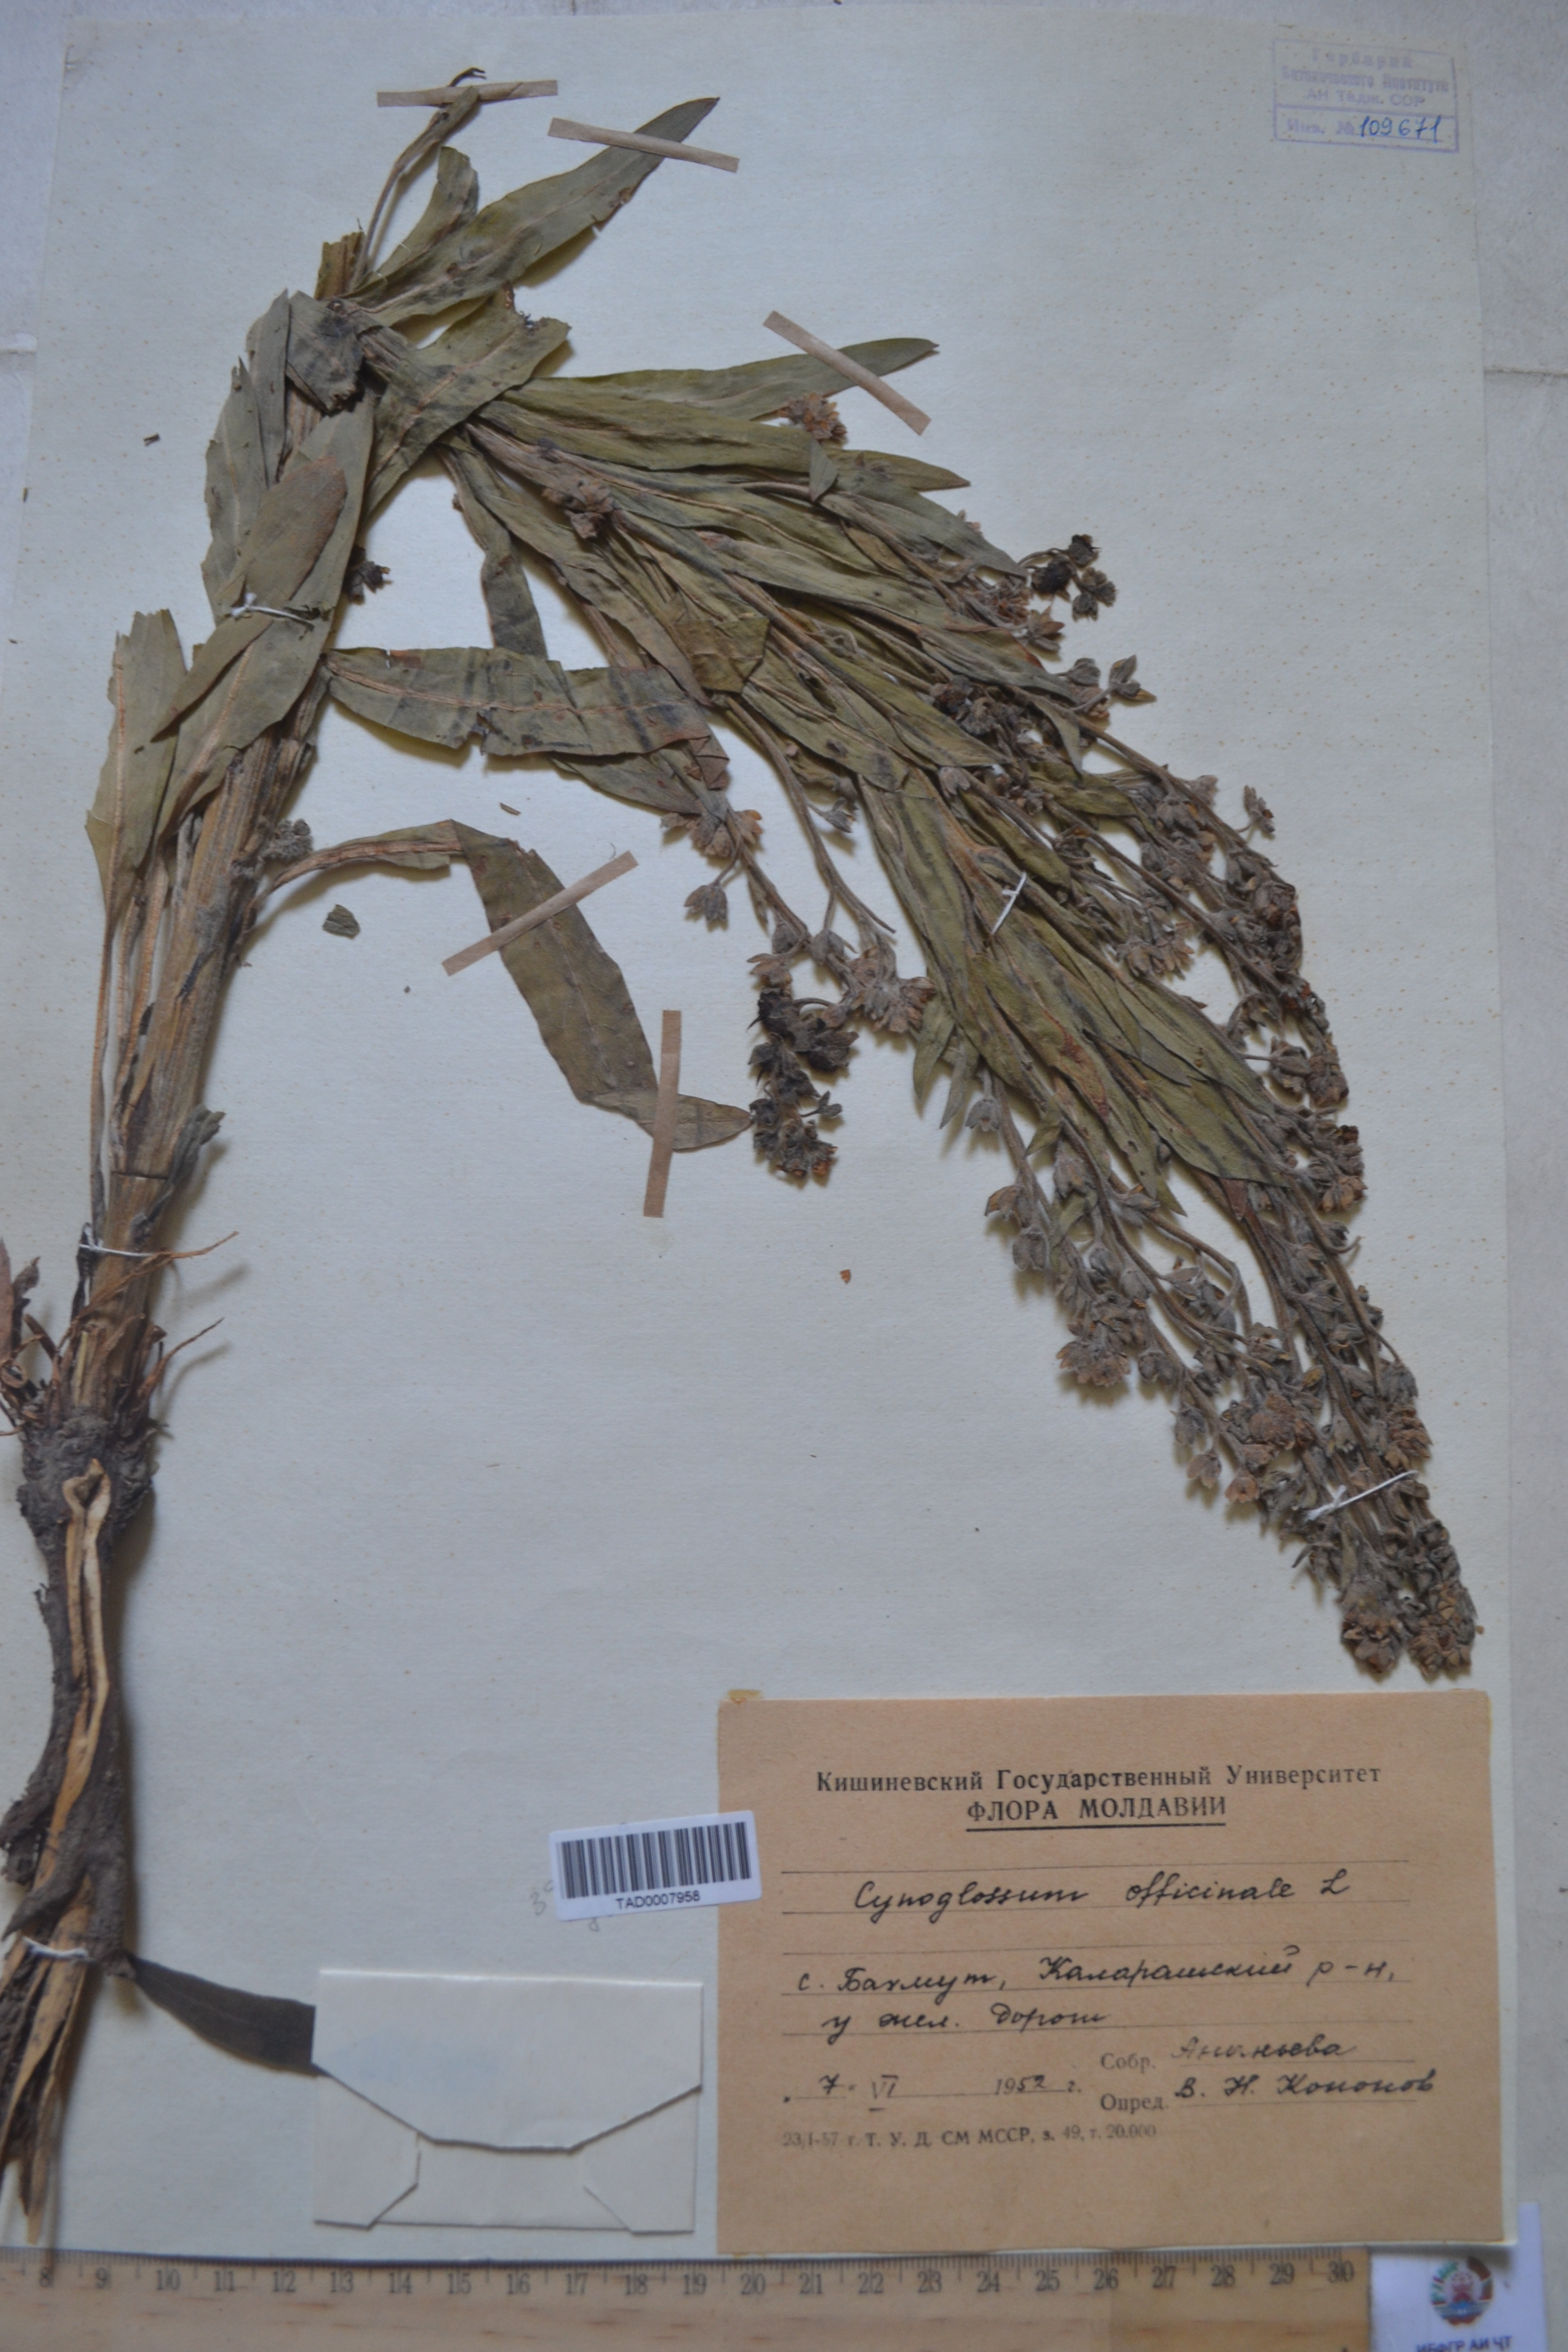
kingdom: Plantae
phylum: Tracheophyta
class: Magnoliopsida
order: Boraginales
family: Boraginaceae
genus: Cynoglossum
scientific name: Cynoglossum officinale
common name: Hound's-tongue
